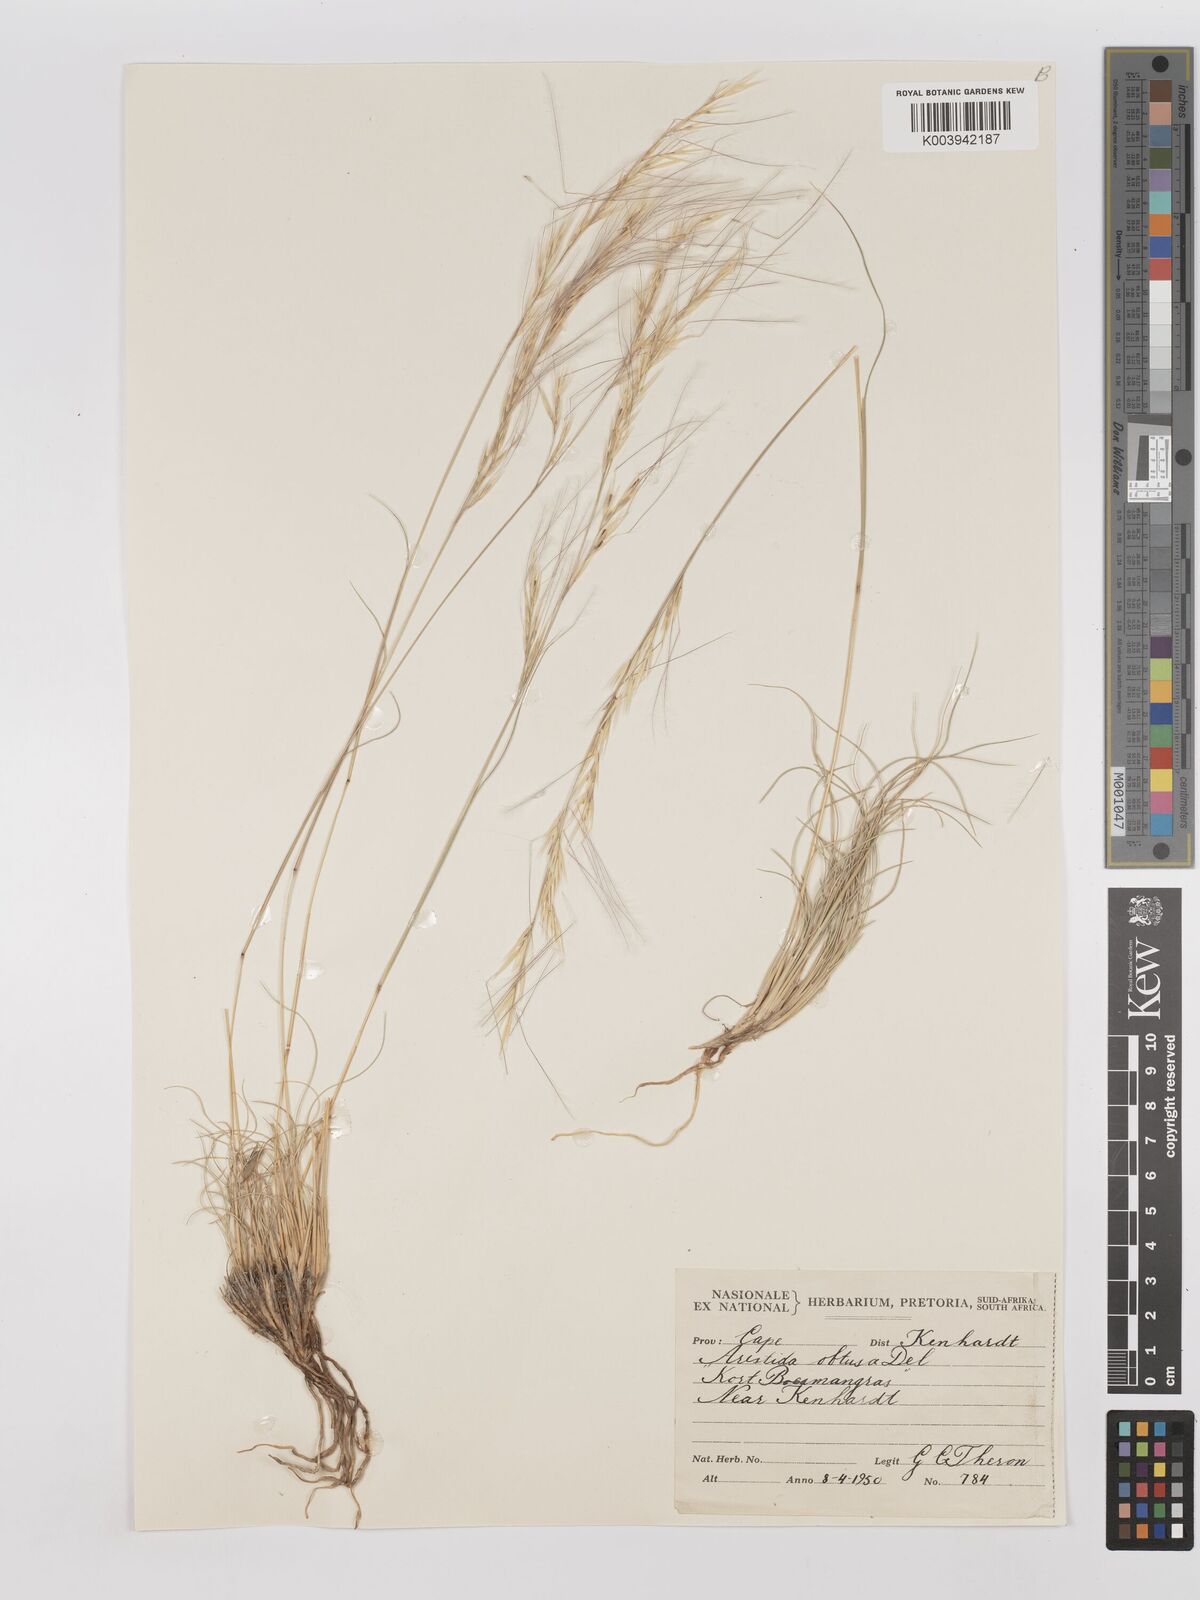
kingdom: Plantae
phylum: Tracheophyta
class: Liliopsida
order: Poales
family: Poaceae
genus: Stipagrostis
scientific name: Stipagrostis obtusa
